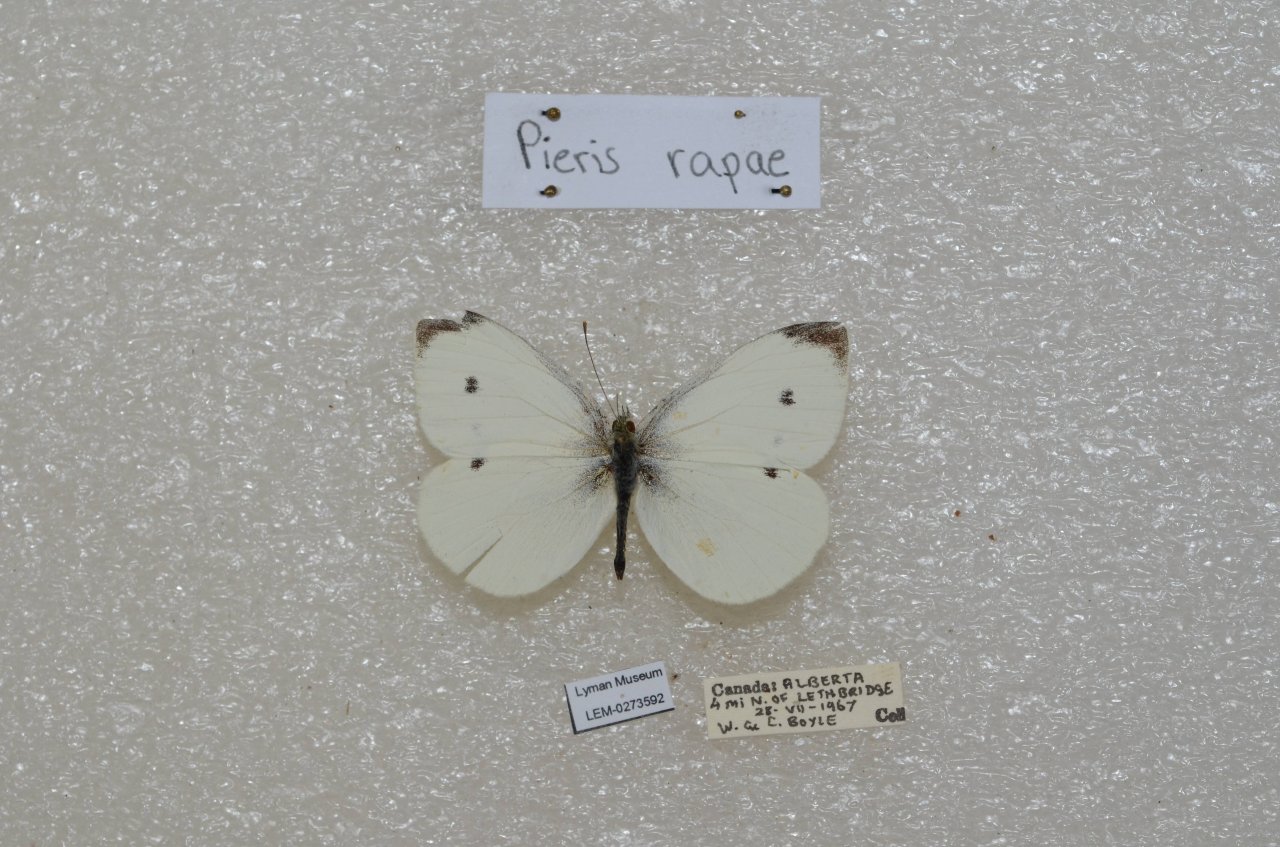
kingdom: Animalia
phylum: Arthropoda
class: Insecta
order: Lepidoptera
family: Pieridae
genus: Pieris
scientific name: Pieris rapae
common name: Cabbage White
